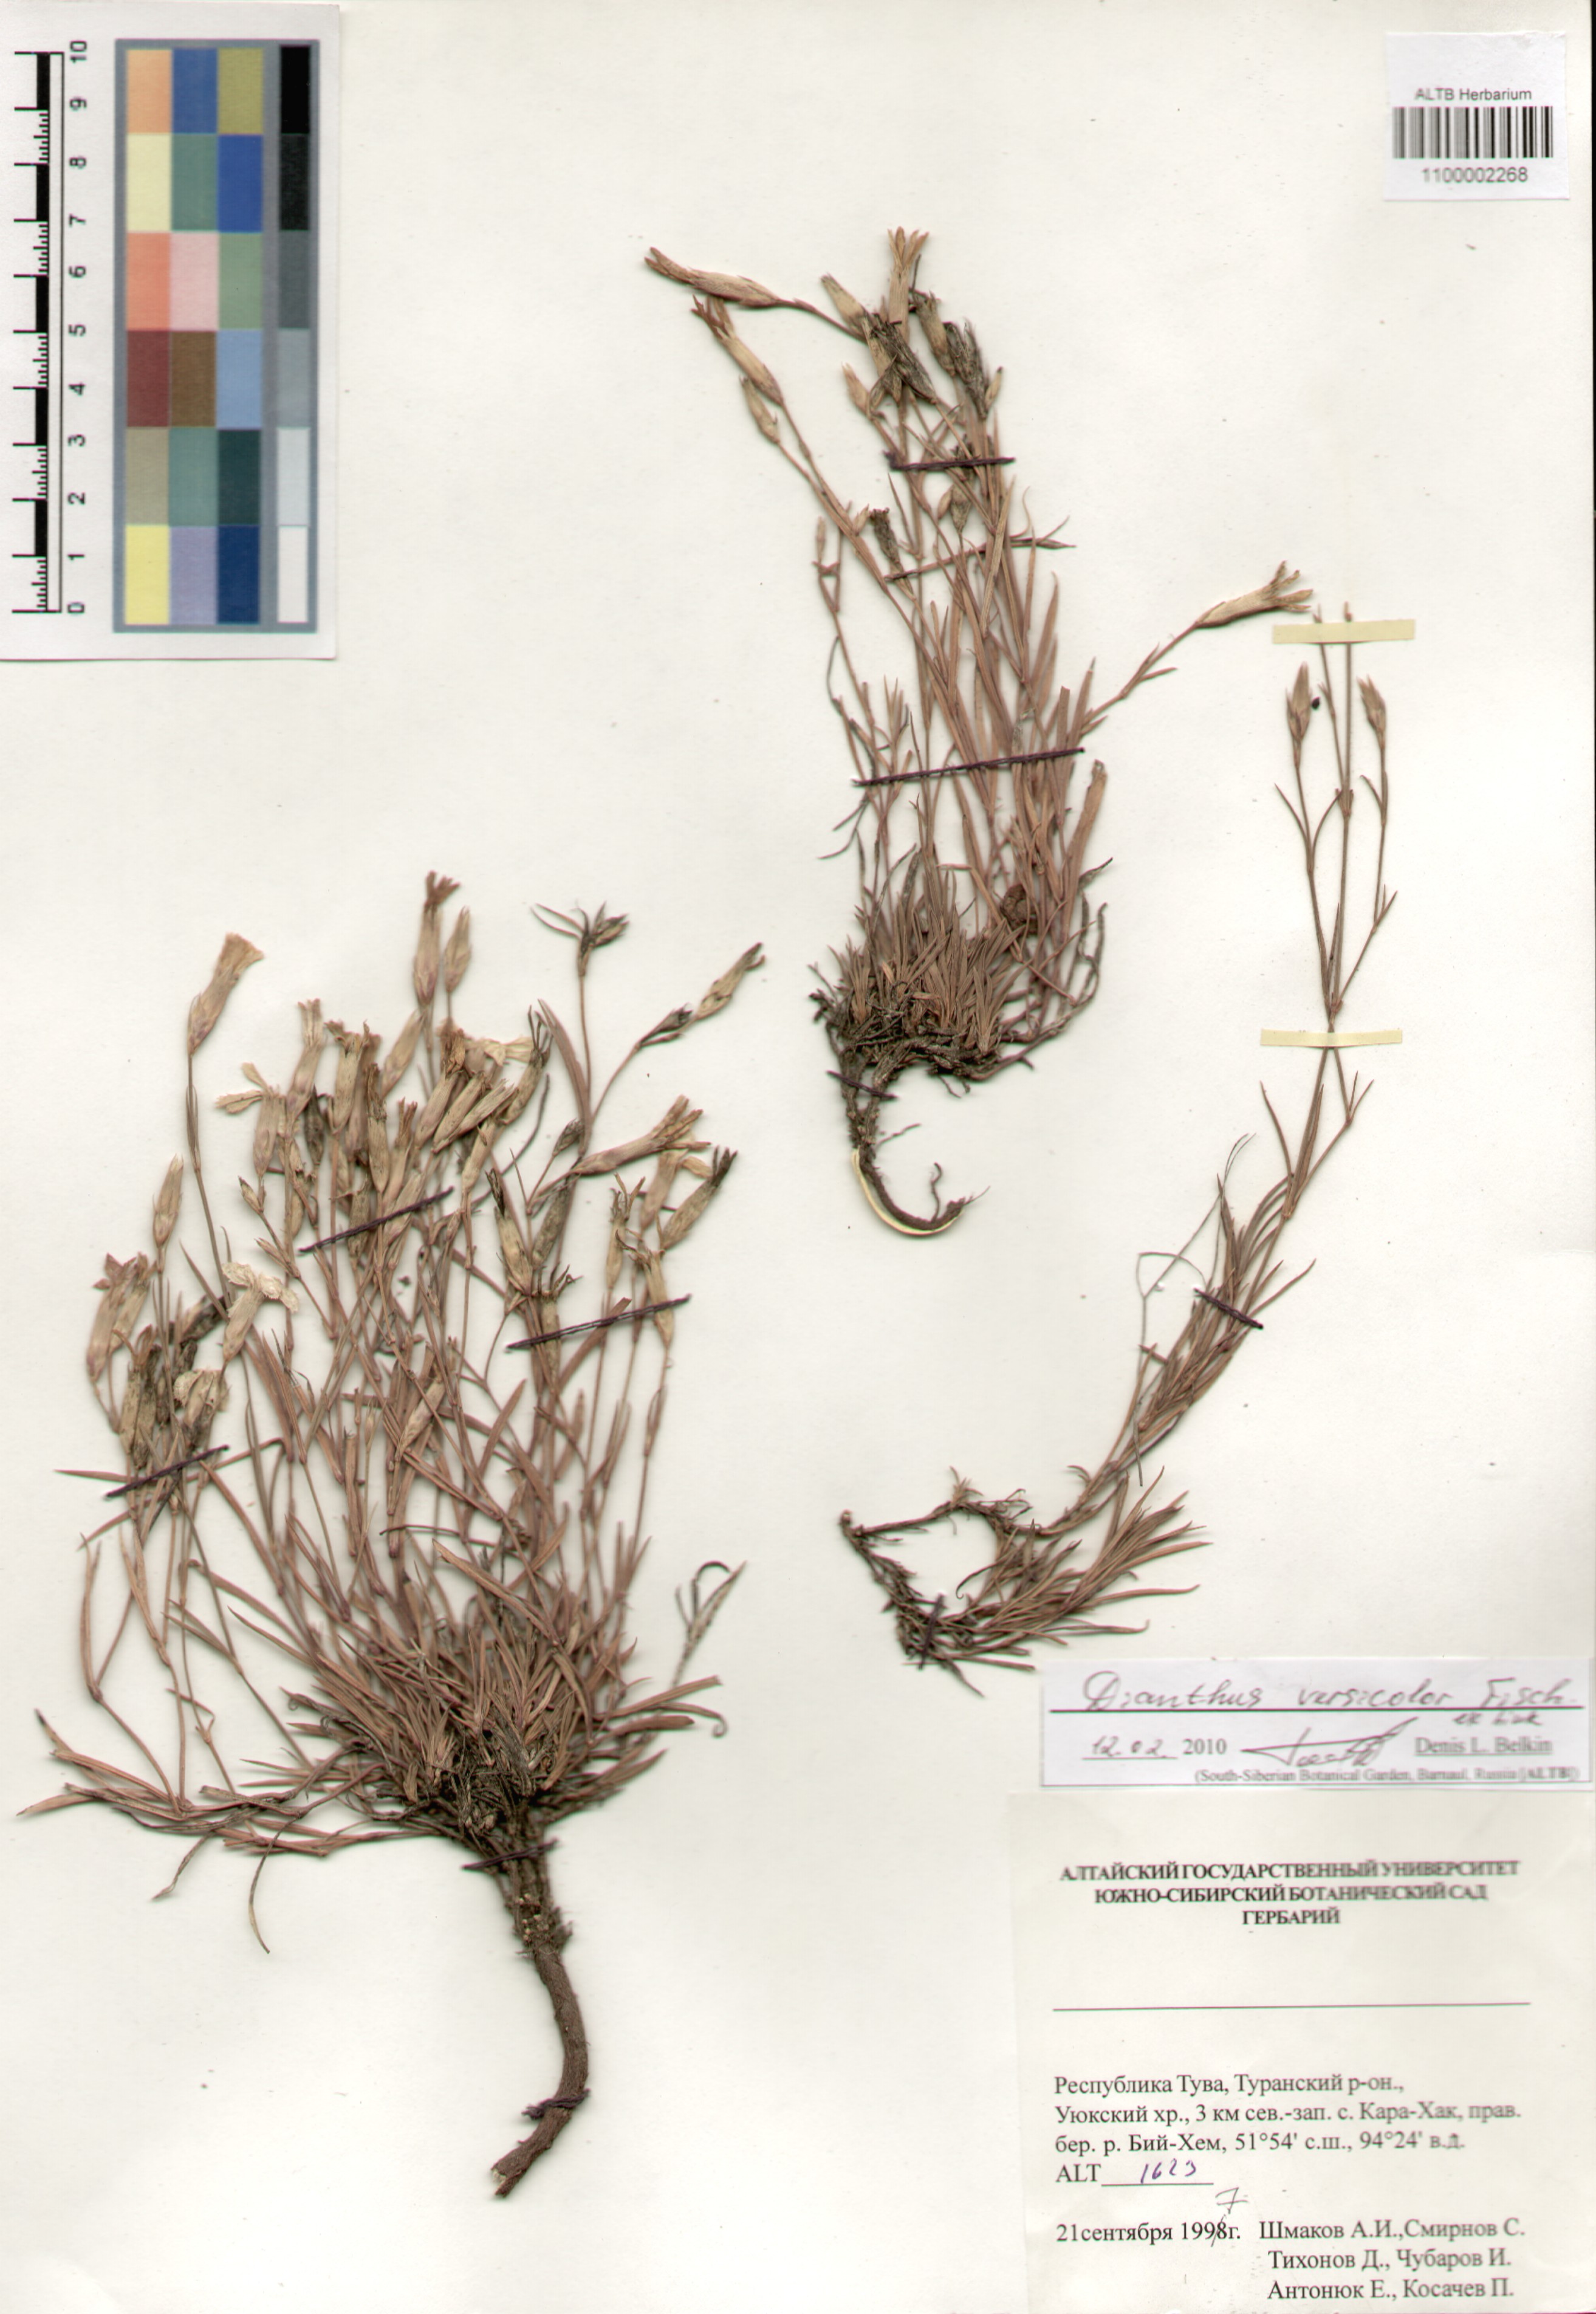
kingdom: Plantae
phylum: Tracheophyta
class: Magnoliopsida
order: Caryophyllales
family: Caryophyllaceae
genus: Dianthus
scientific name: Dianthus chinensis
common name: Rainbow pink
